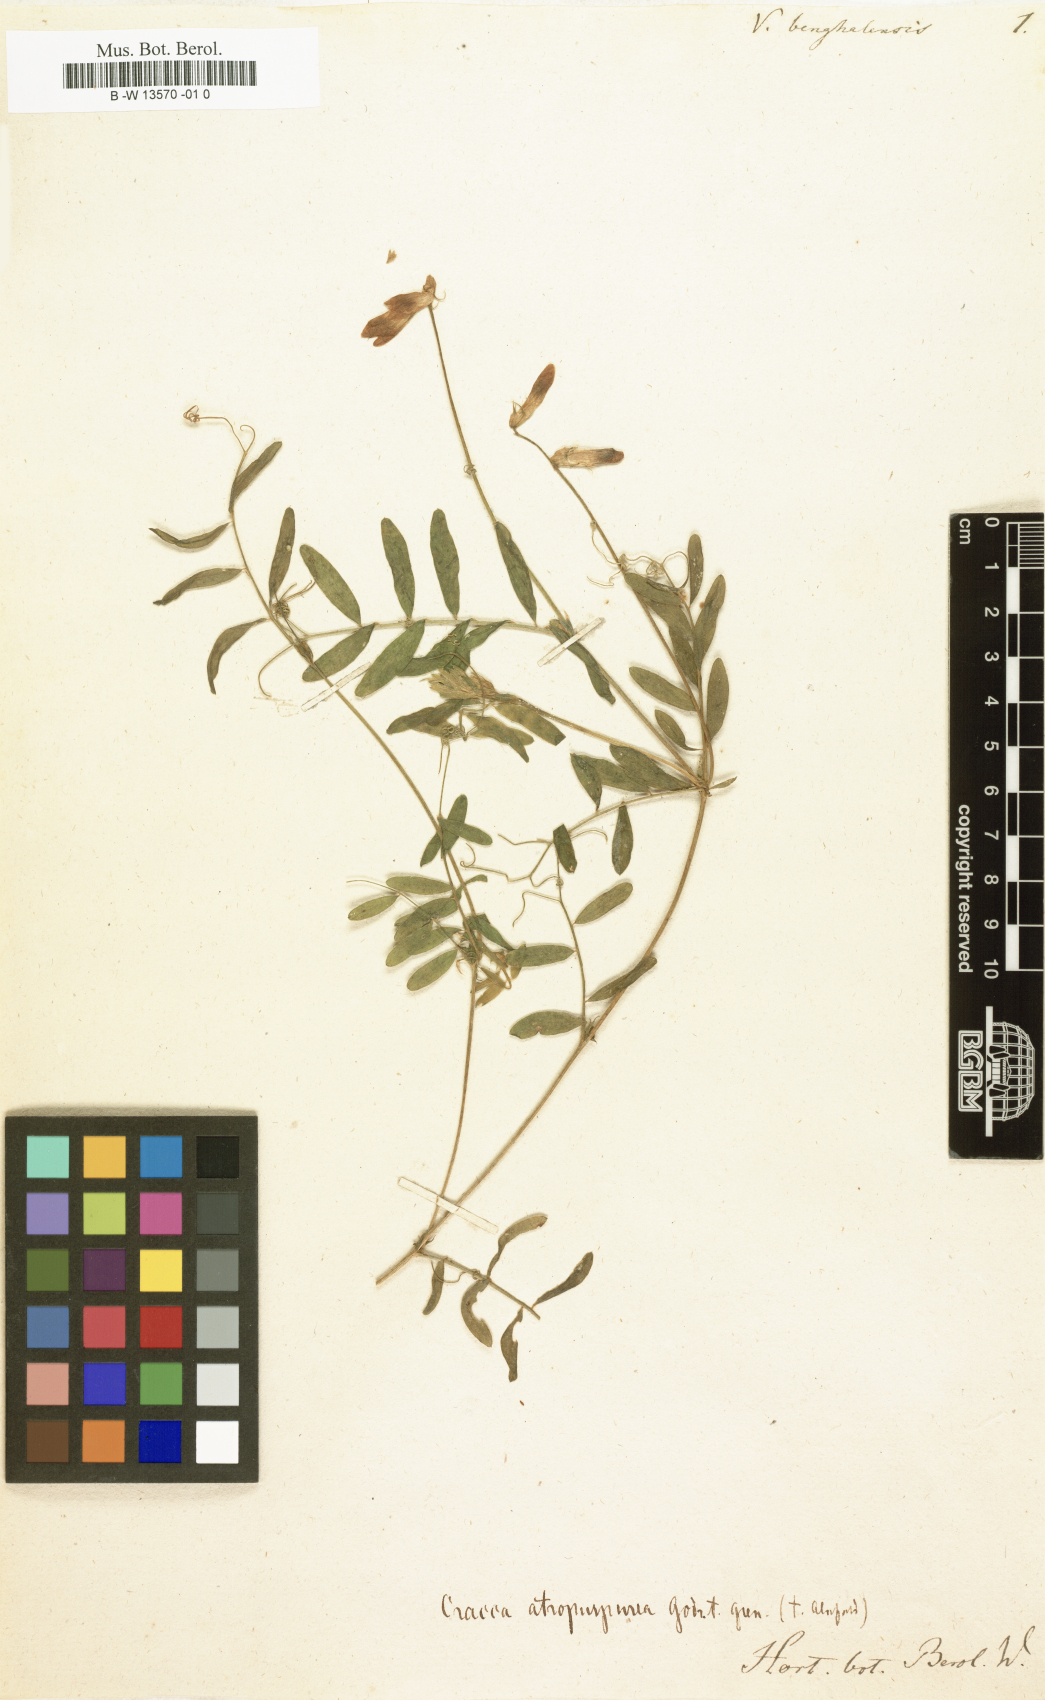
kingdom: Plantae
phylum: Tracheophyta
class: Magnoliopsida
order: Fabales
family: Fabaceae
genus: Vicia
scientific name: Vicia benghalensis
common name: Purple vetch
